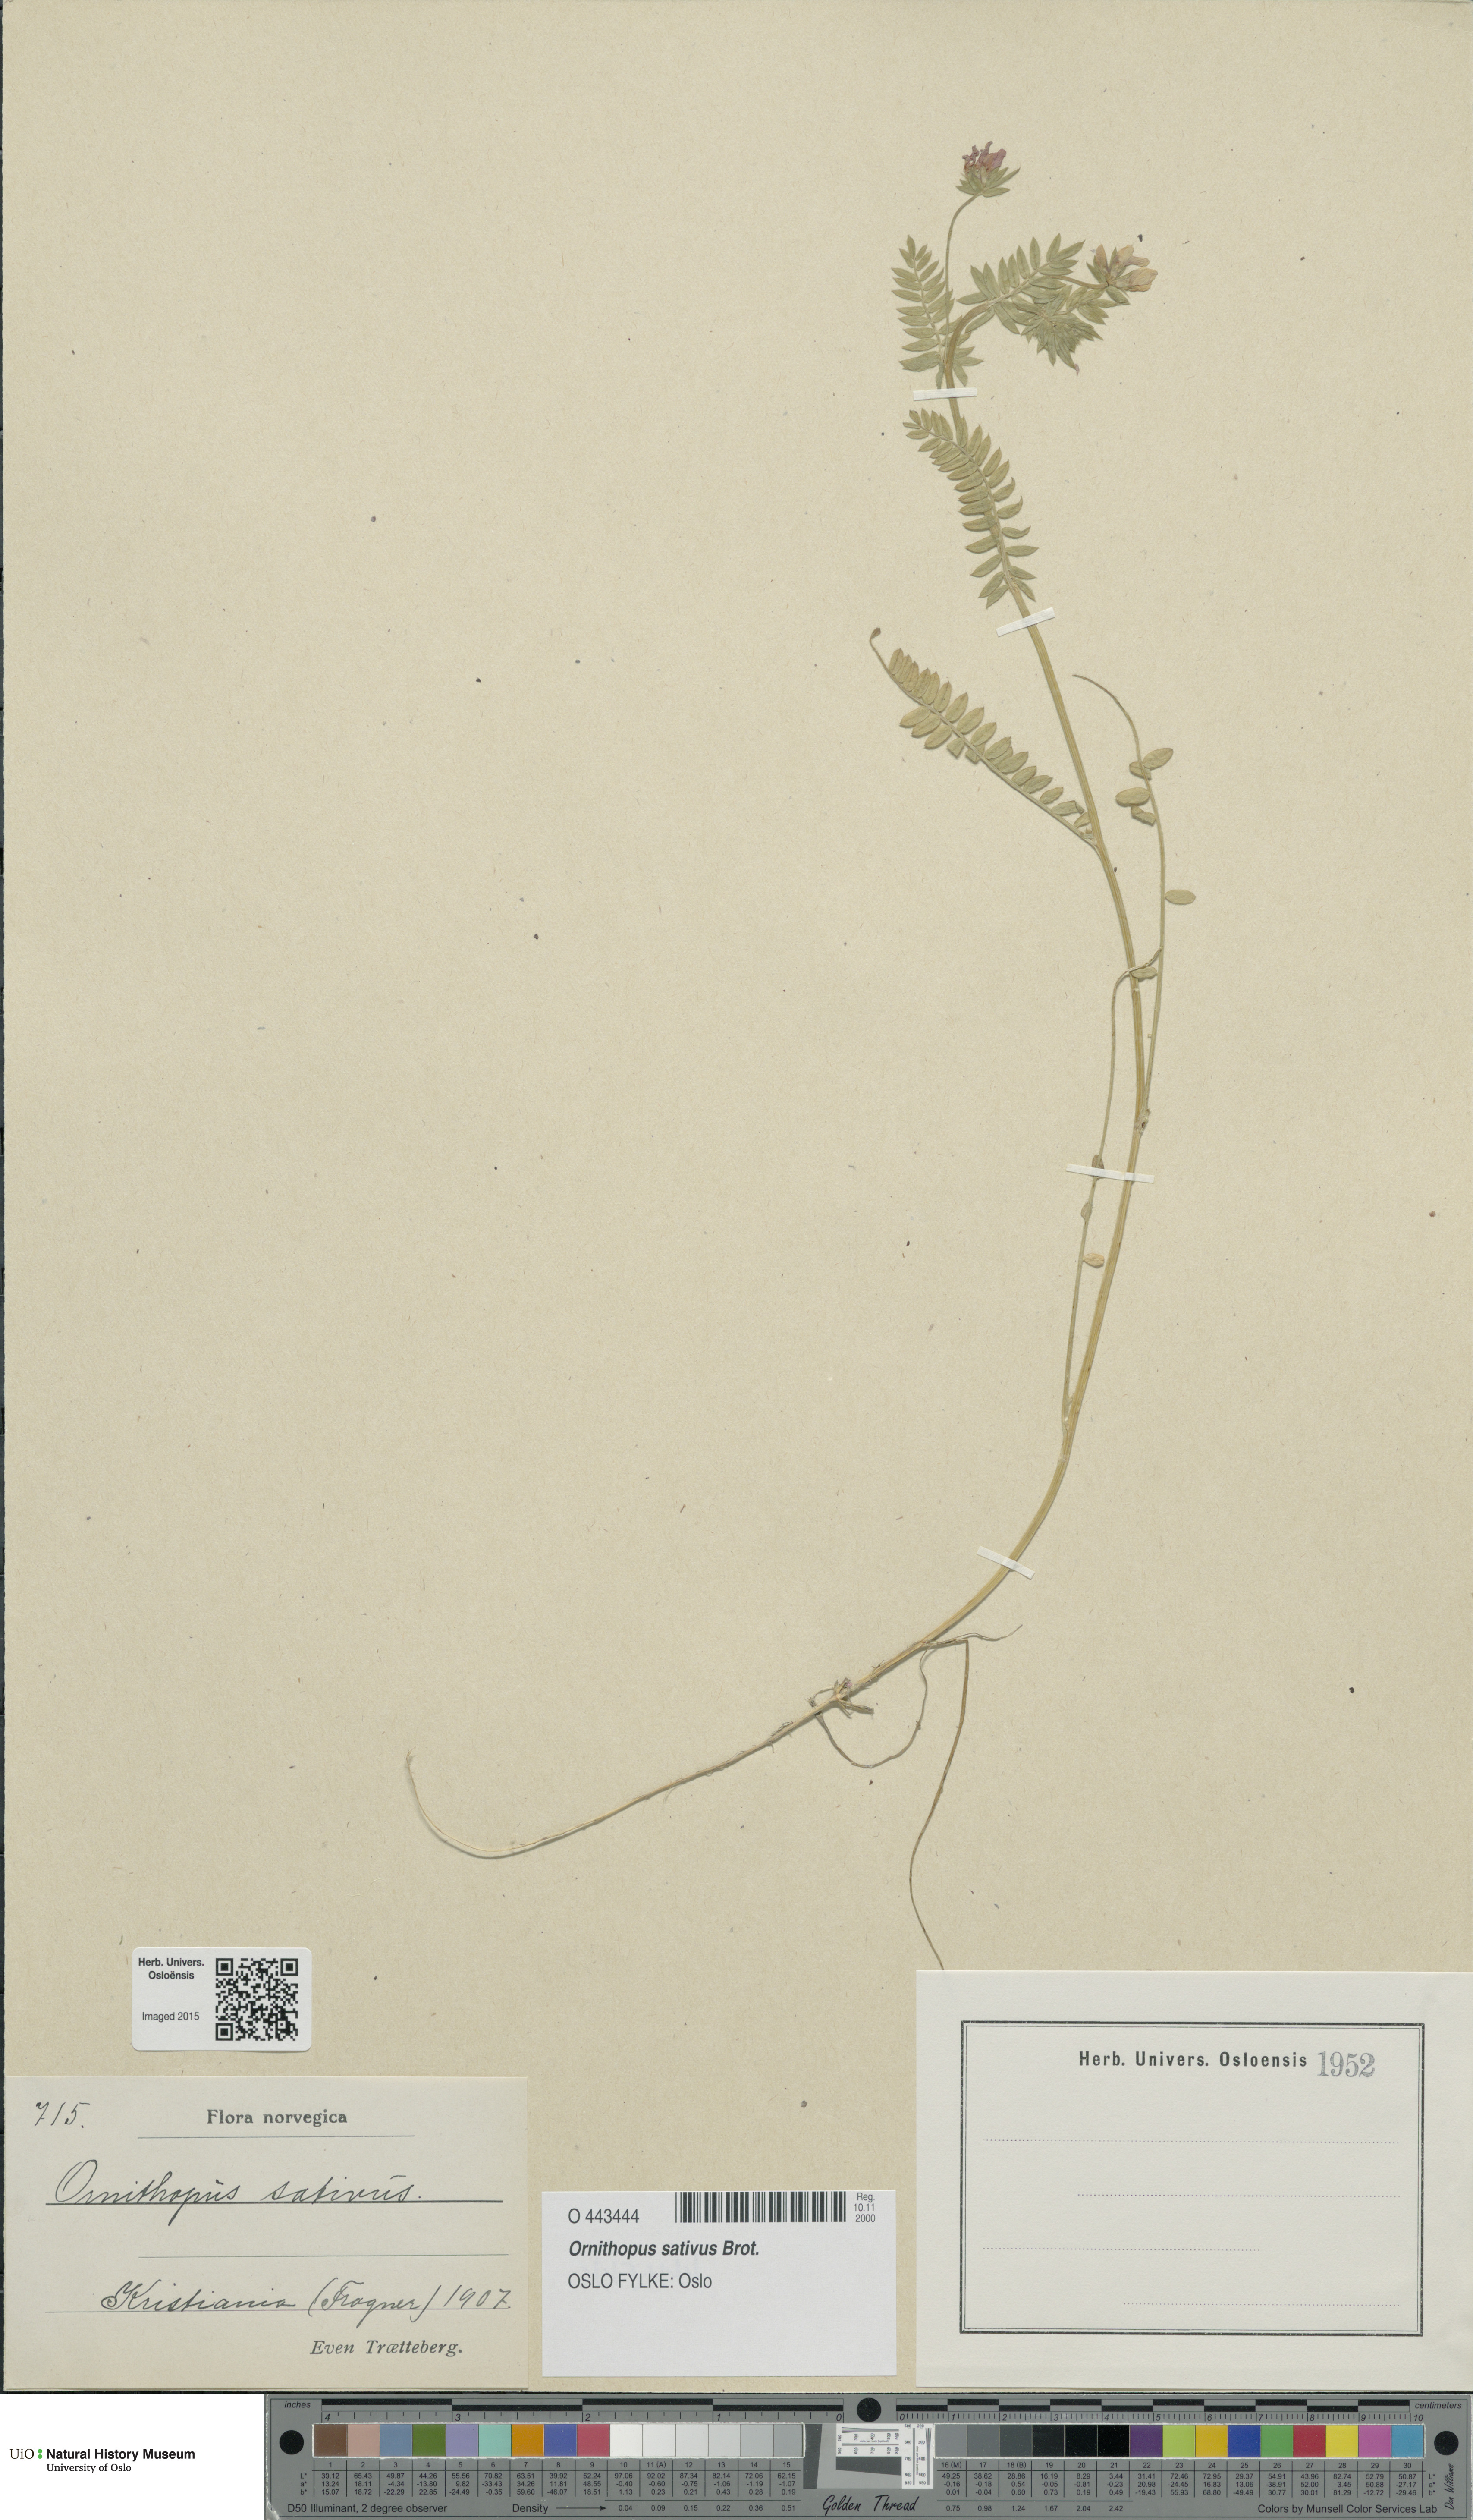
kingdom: Plantae
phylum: Tracheophyta
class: Magnoliopsida
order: Fabales
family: Fabaceae
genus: Ornithopus
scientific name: Ornithopus sativus
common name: Serradella
